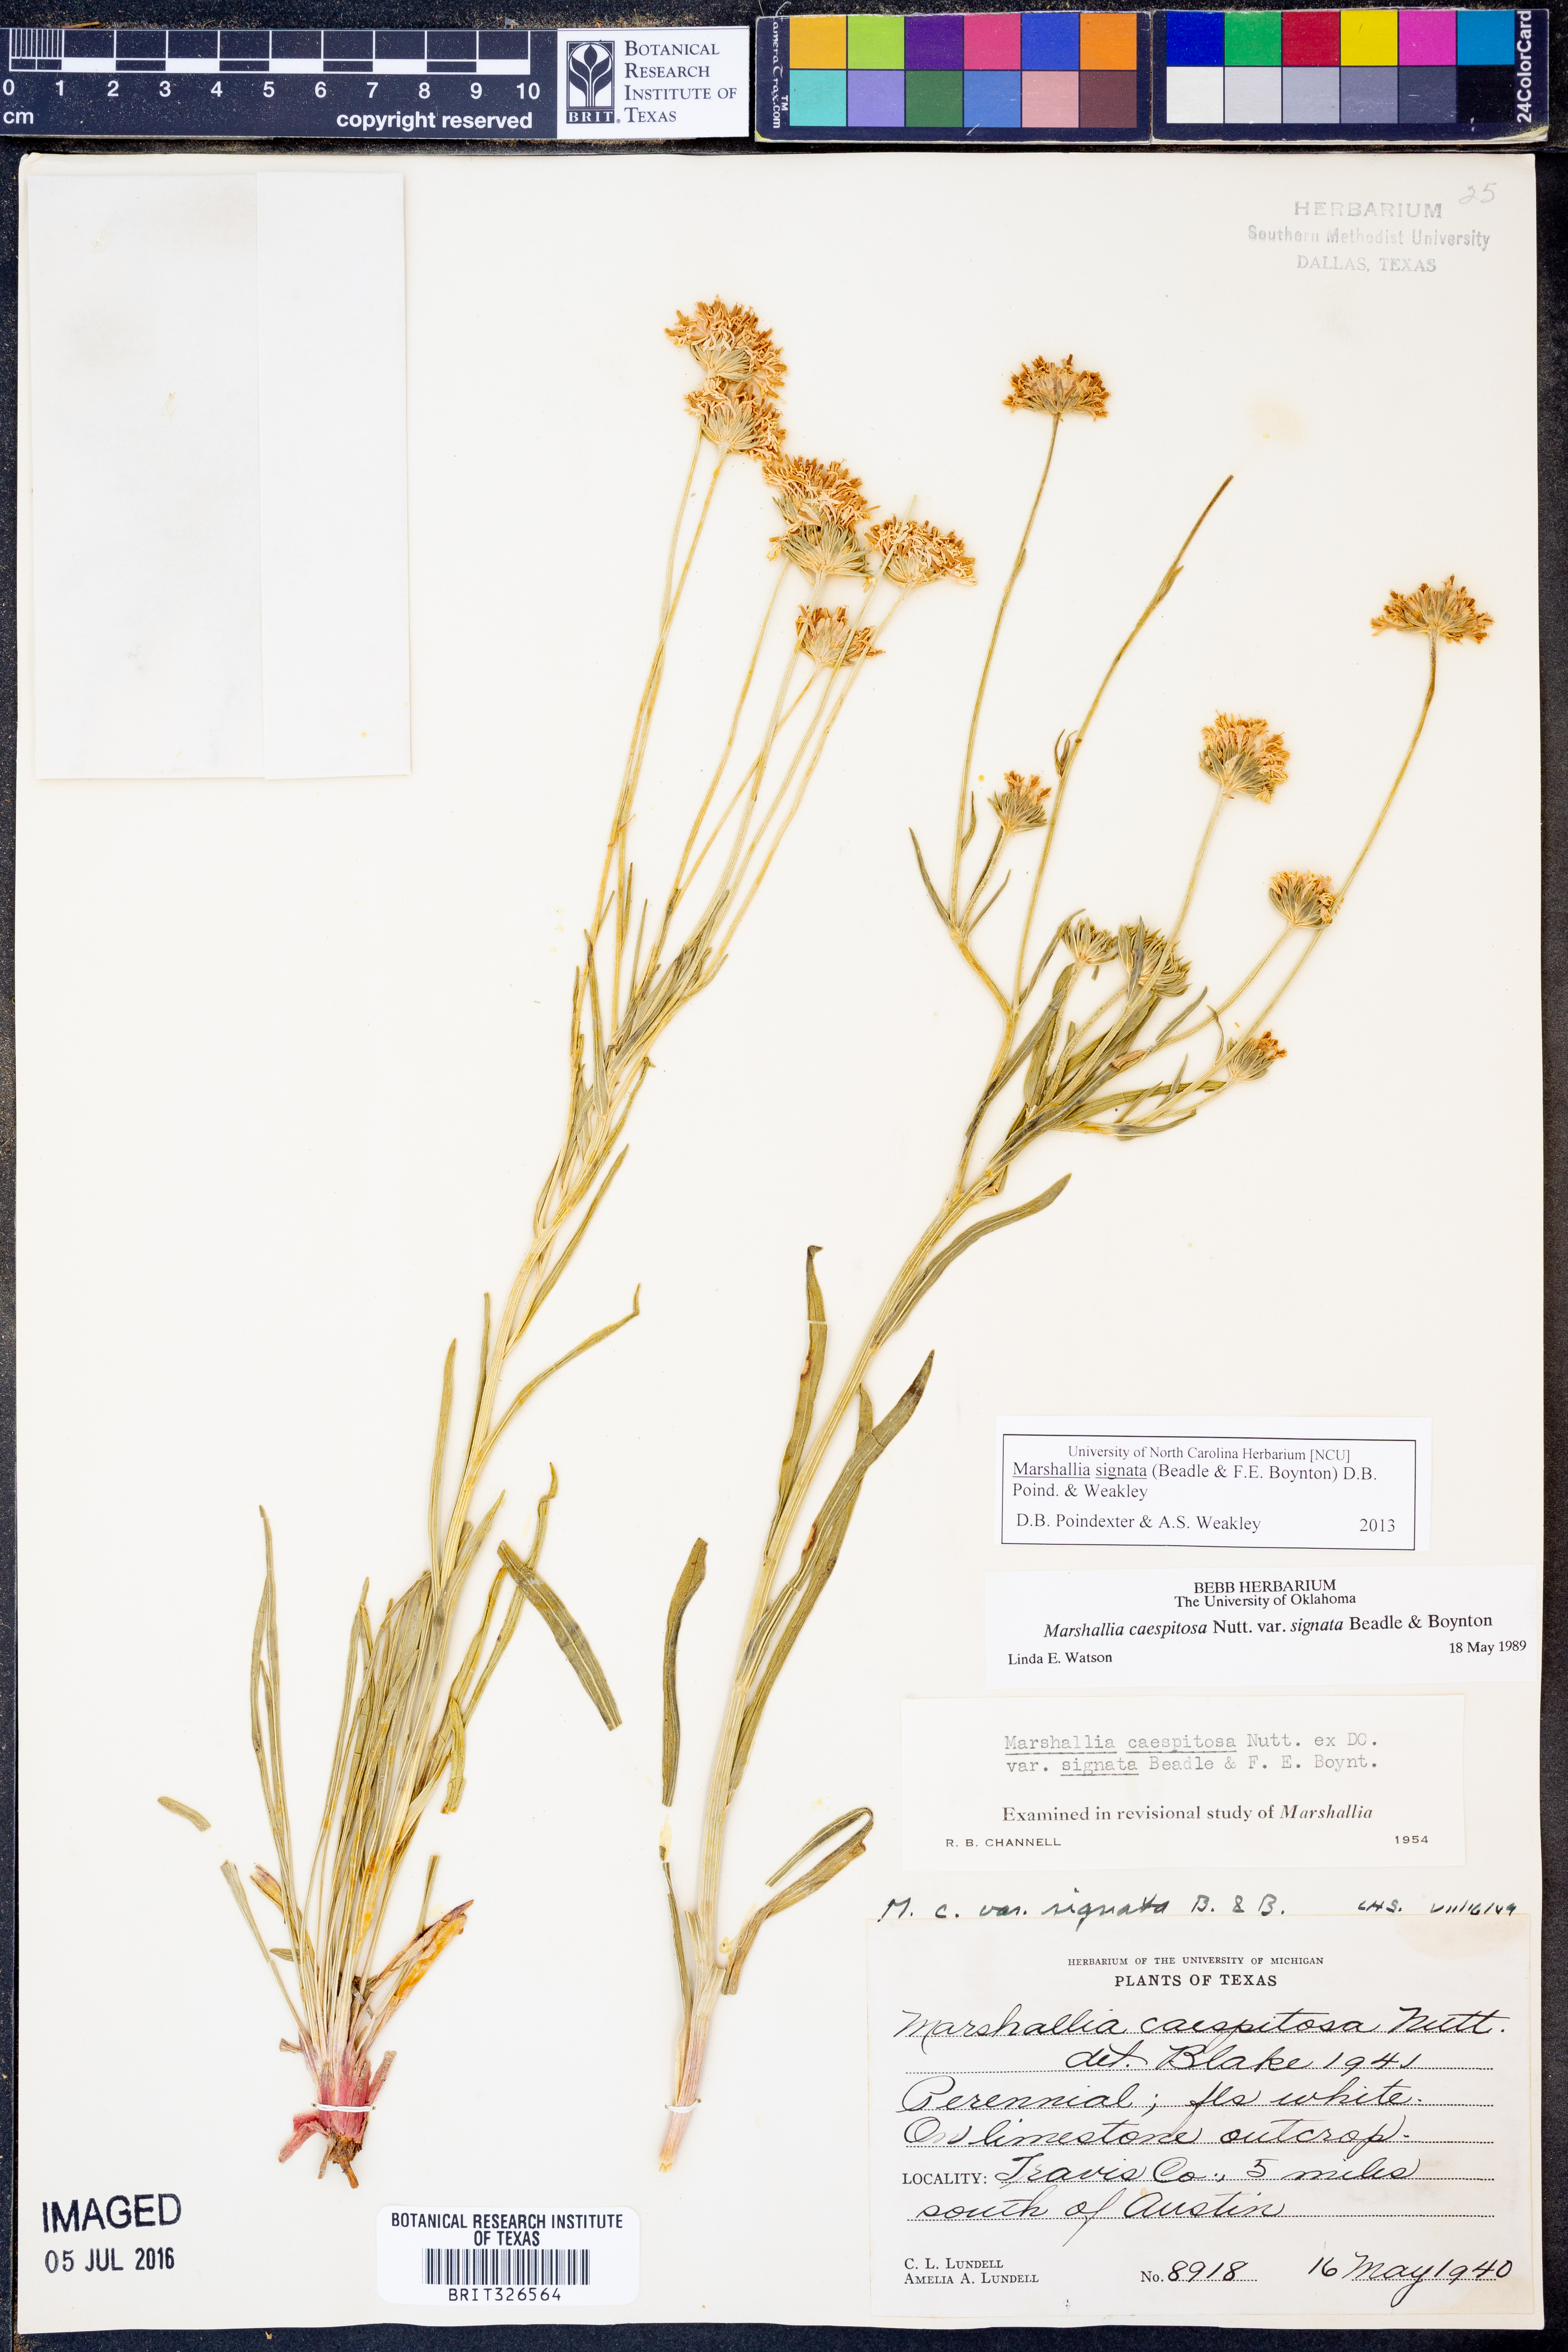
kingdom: Plantae
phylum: Tracheophyta
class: Magnoliopsida
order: Asterales
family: Asteraceae
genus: Marshallia
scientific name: Marshallia
